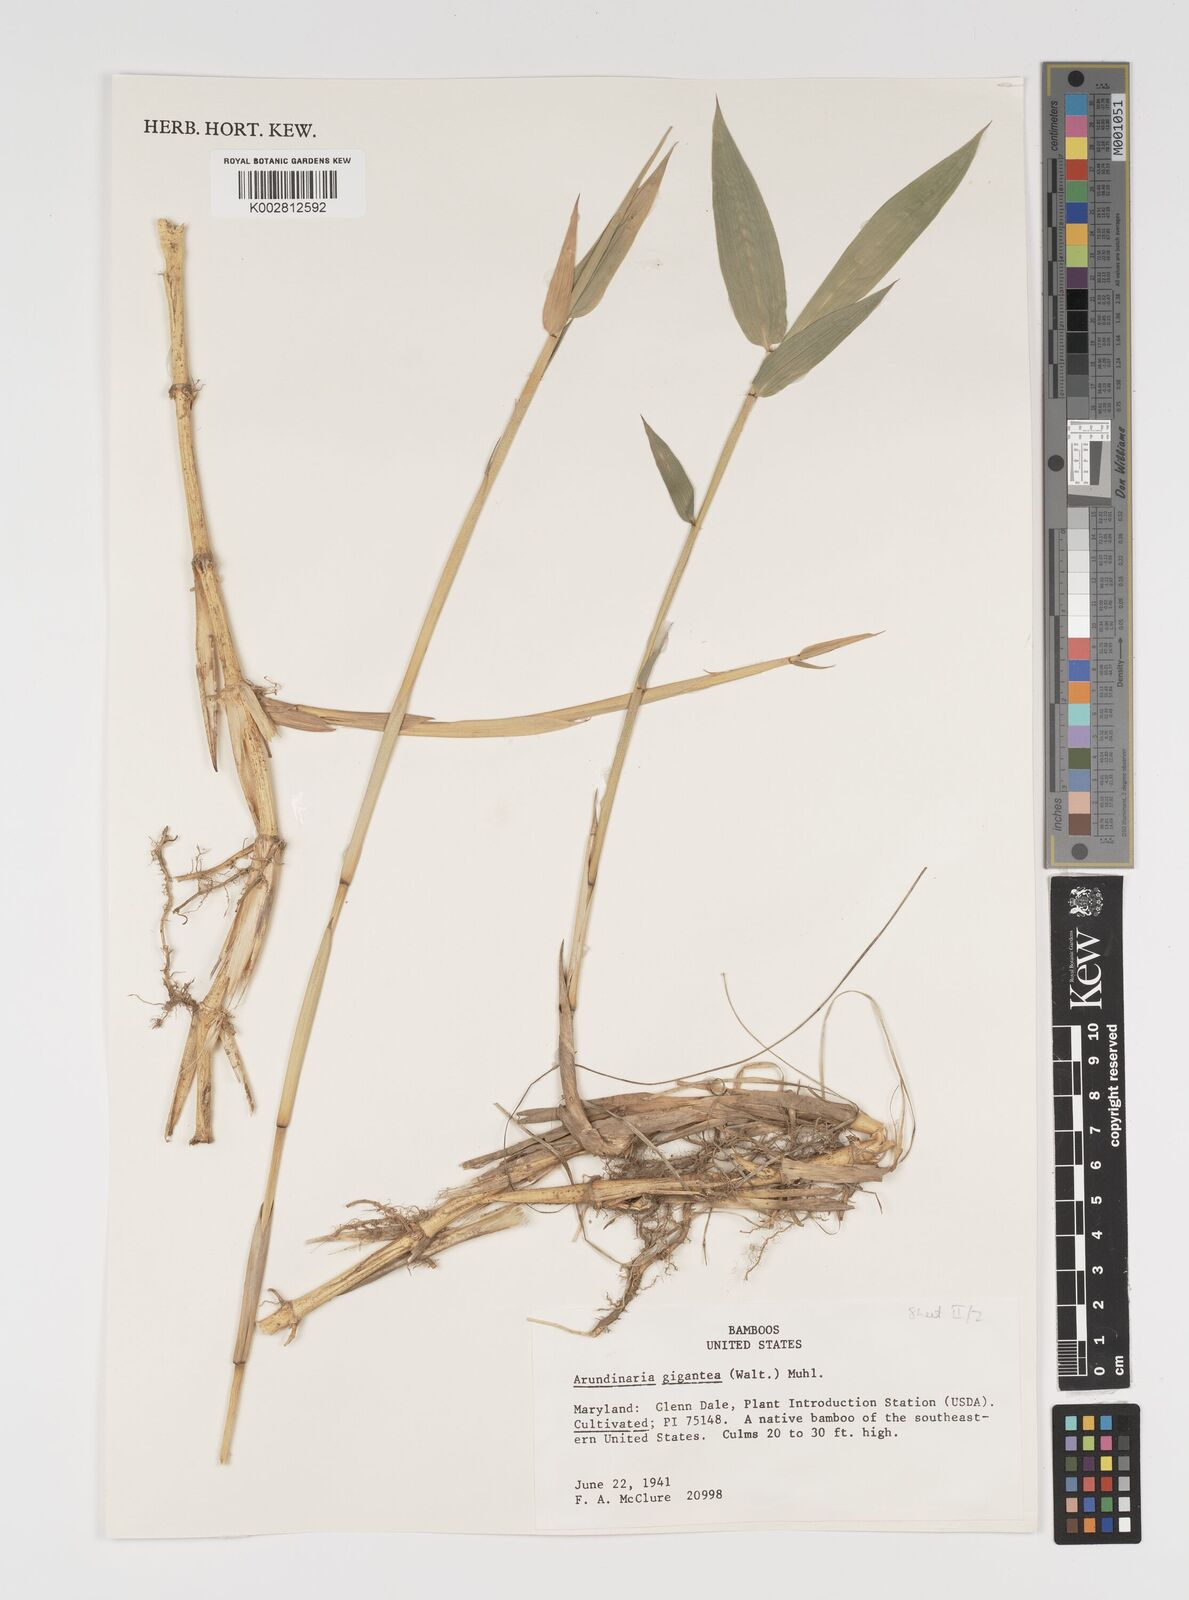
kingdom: Plantae
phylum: Tracheophyta
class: Liliopsida
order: Poales
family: Poaceae
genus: Arundinaria
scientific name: Arundinaria gigantea
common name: Giant cane
